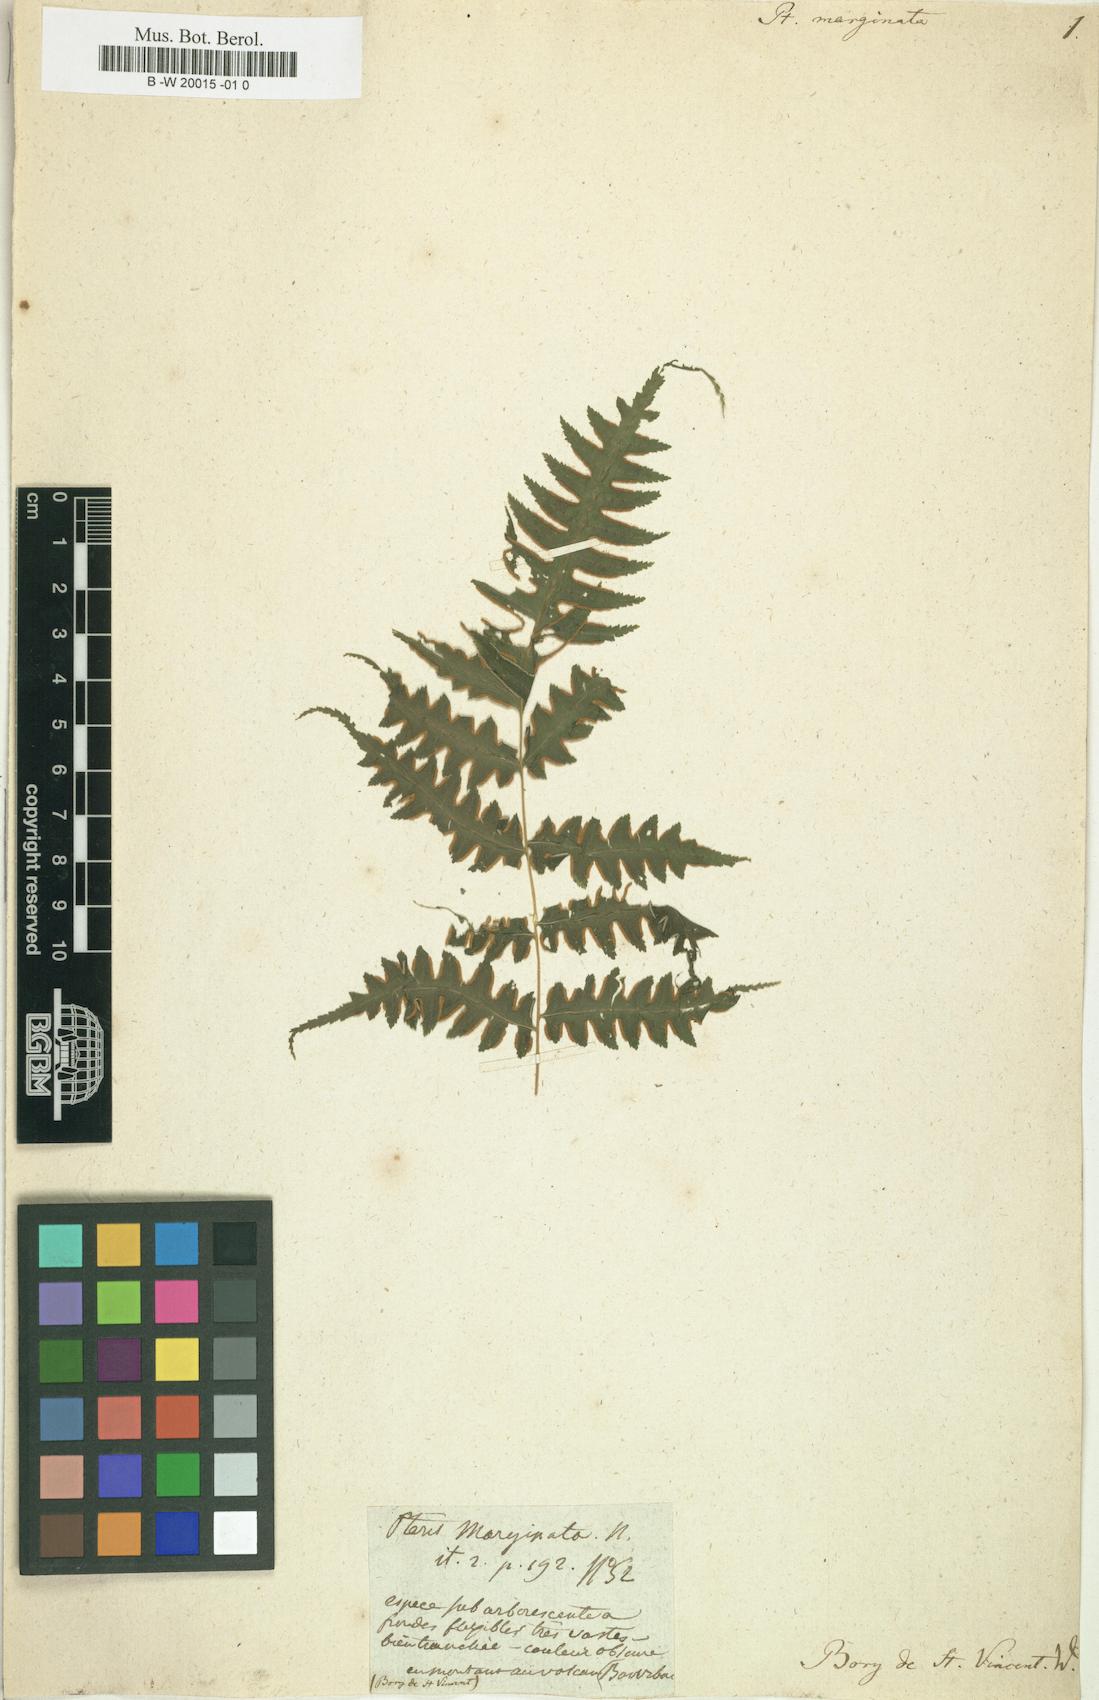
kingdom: Plantae
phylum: Tracheophyta
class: Polypodiopsida
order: Polypodiales
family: Pteridaceae
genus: Pteris
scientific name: Pteris tripartita
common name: Giant brake
